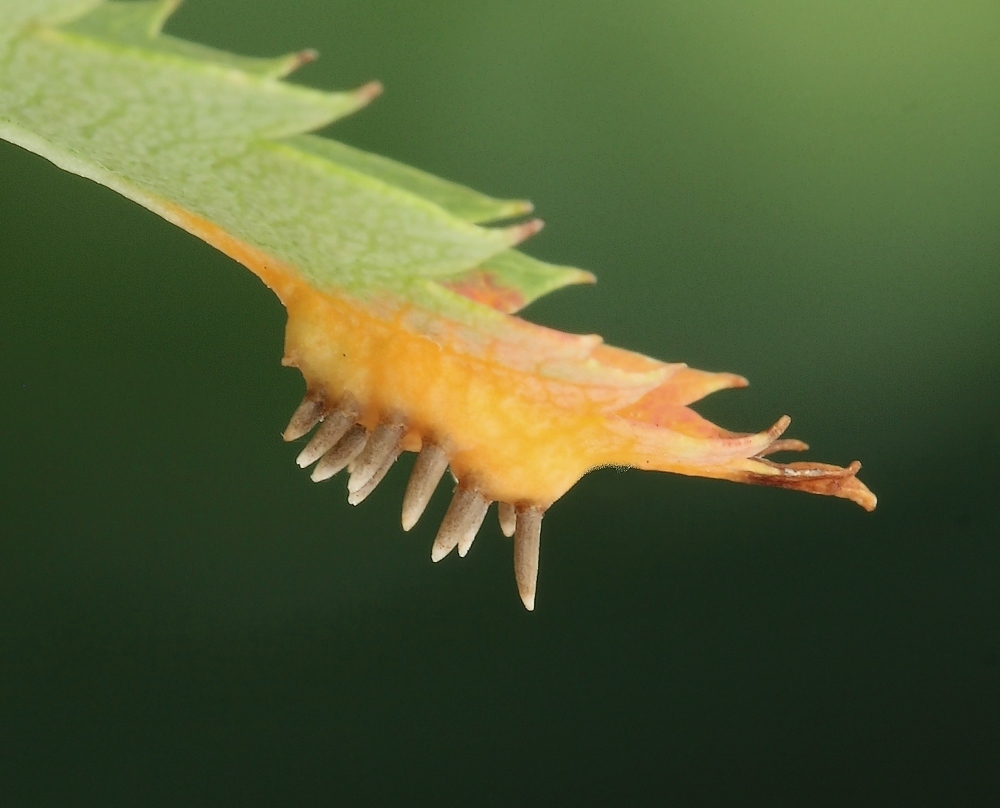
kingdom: Fungi
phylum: Basidiomycota
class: Pucciniomycetes
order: Pucciniales
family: Gymnosporangiaceae
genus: Gymnosporangium
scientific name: Gymnosporangium cornutum
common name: rønnehorn-bævrerust
